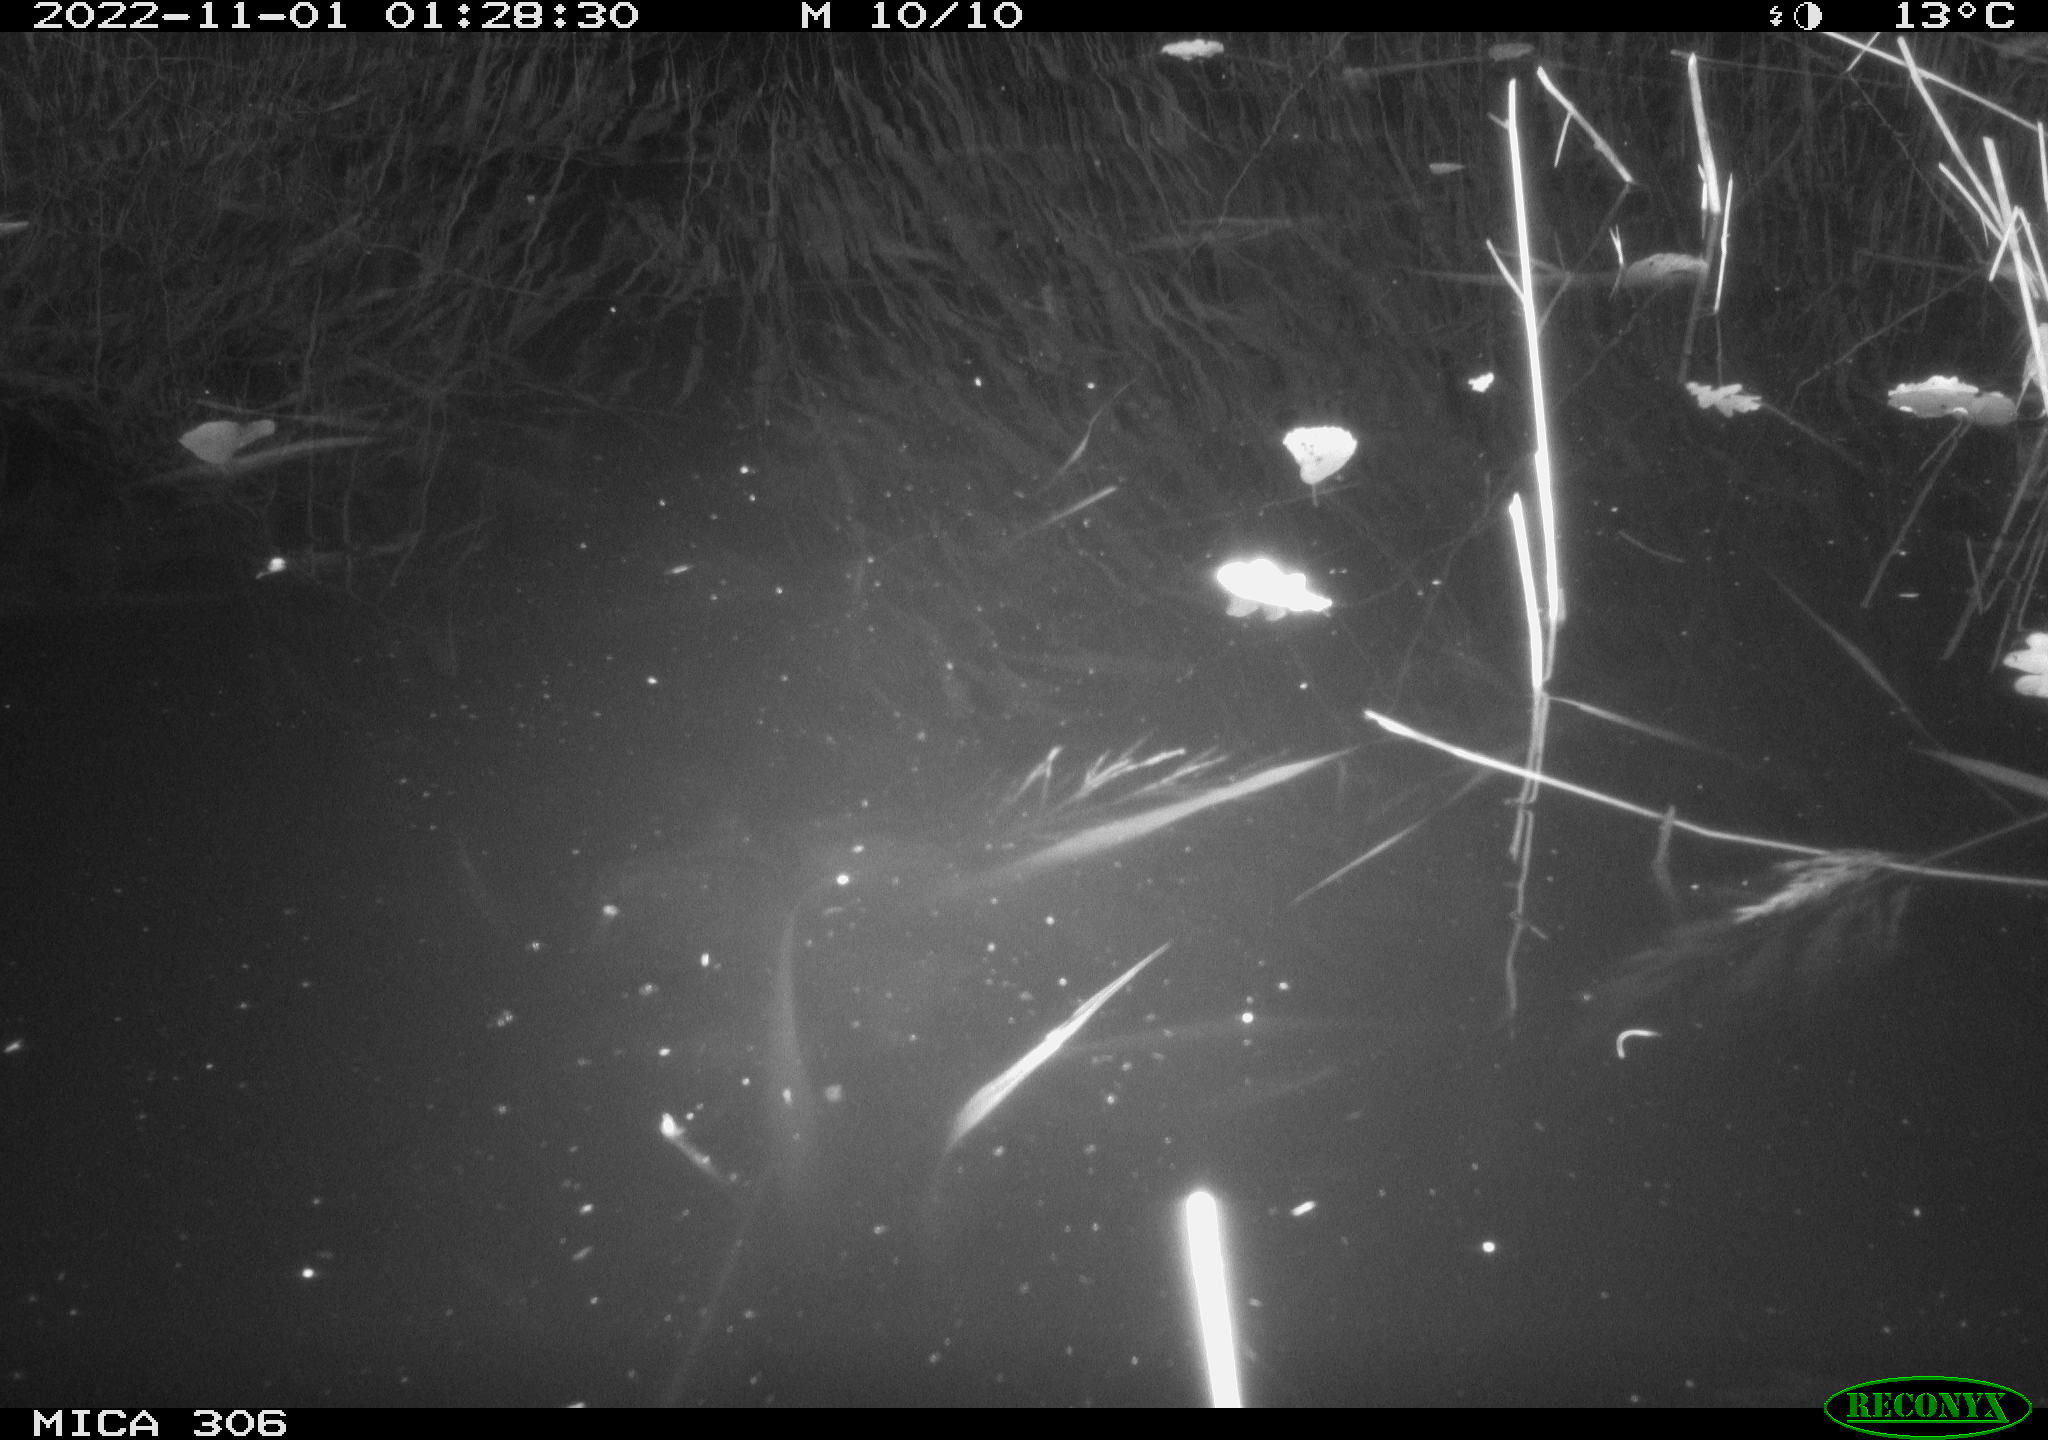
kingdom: Animalia
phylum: Chordata
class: Mammalia
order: Rodentia
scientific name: Rodentia
